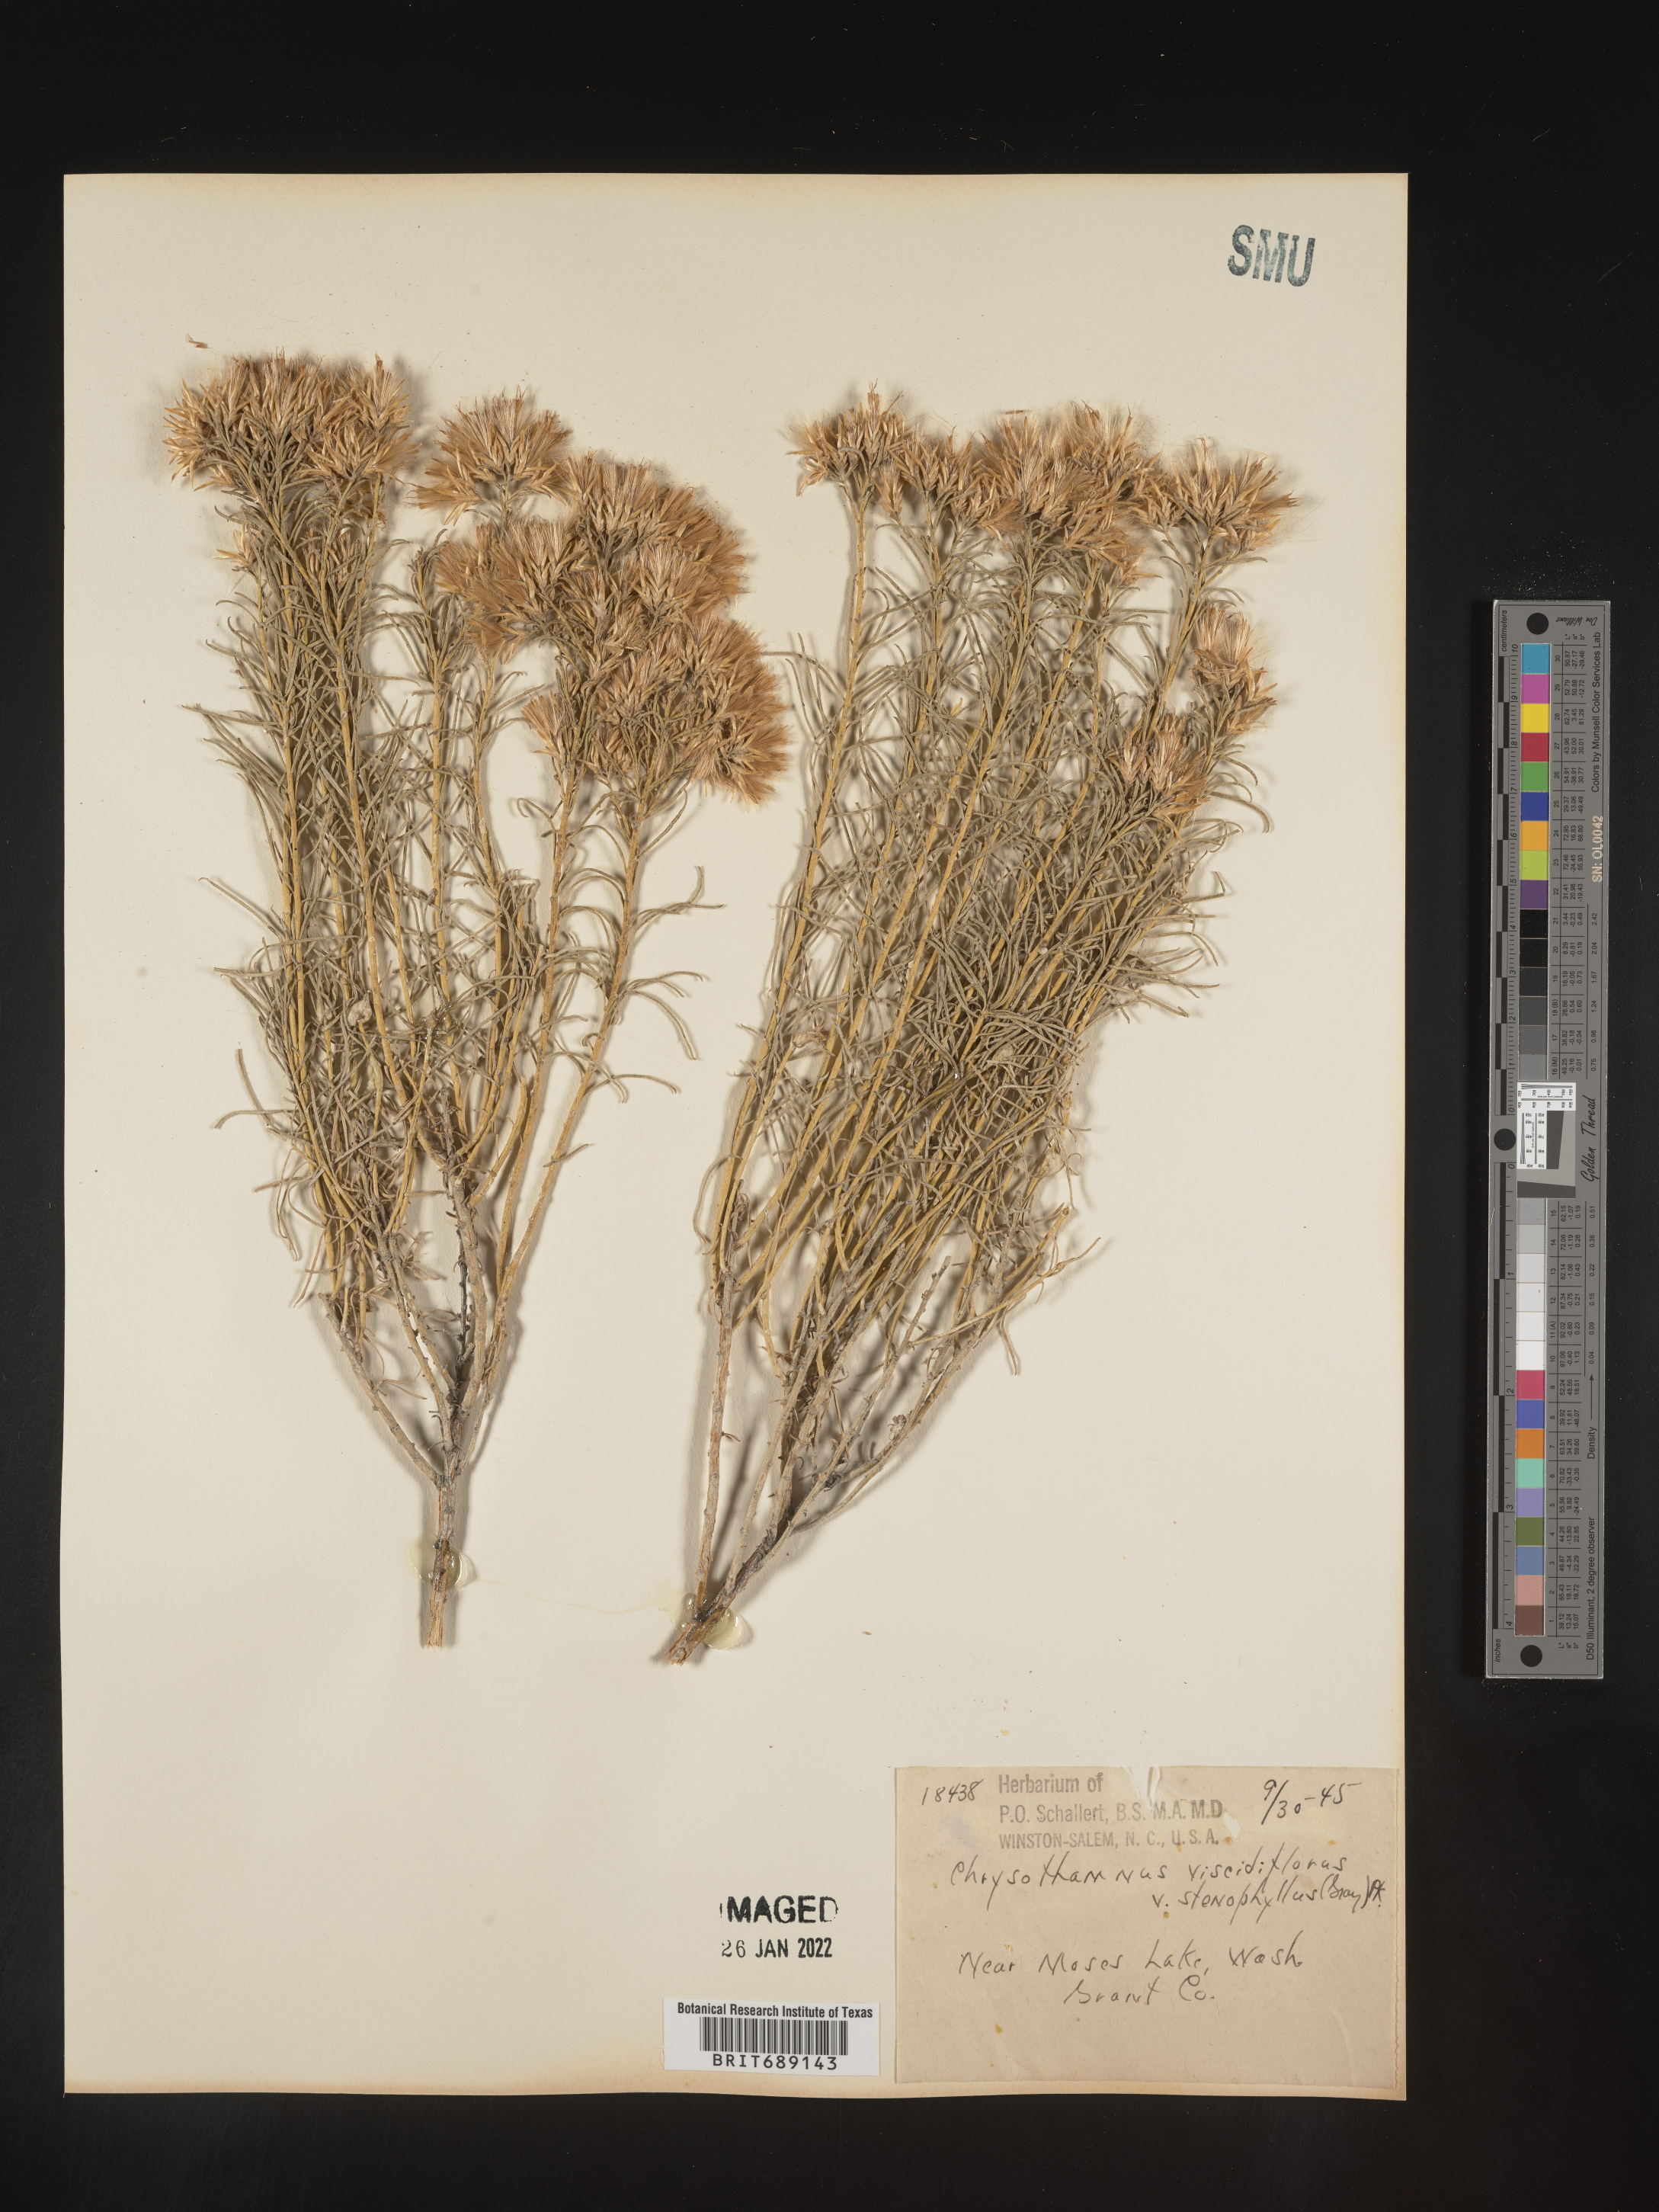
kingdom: Plantae
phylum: Tracheophyta
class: Magnoliopsida
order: Asterales
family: Asteraceae
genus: Chrysothamnus
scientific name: Chrysothamnus viscidiflorus
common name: Yellow rabbitbrush
